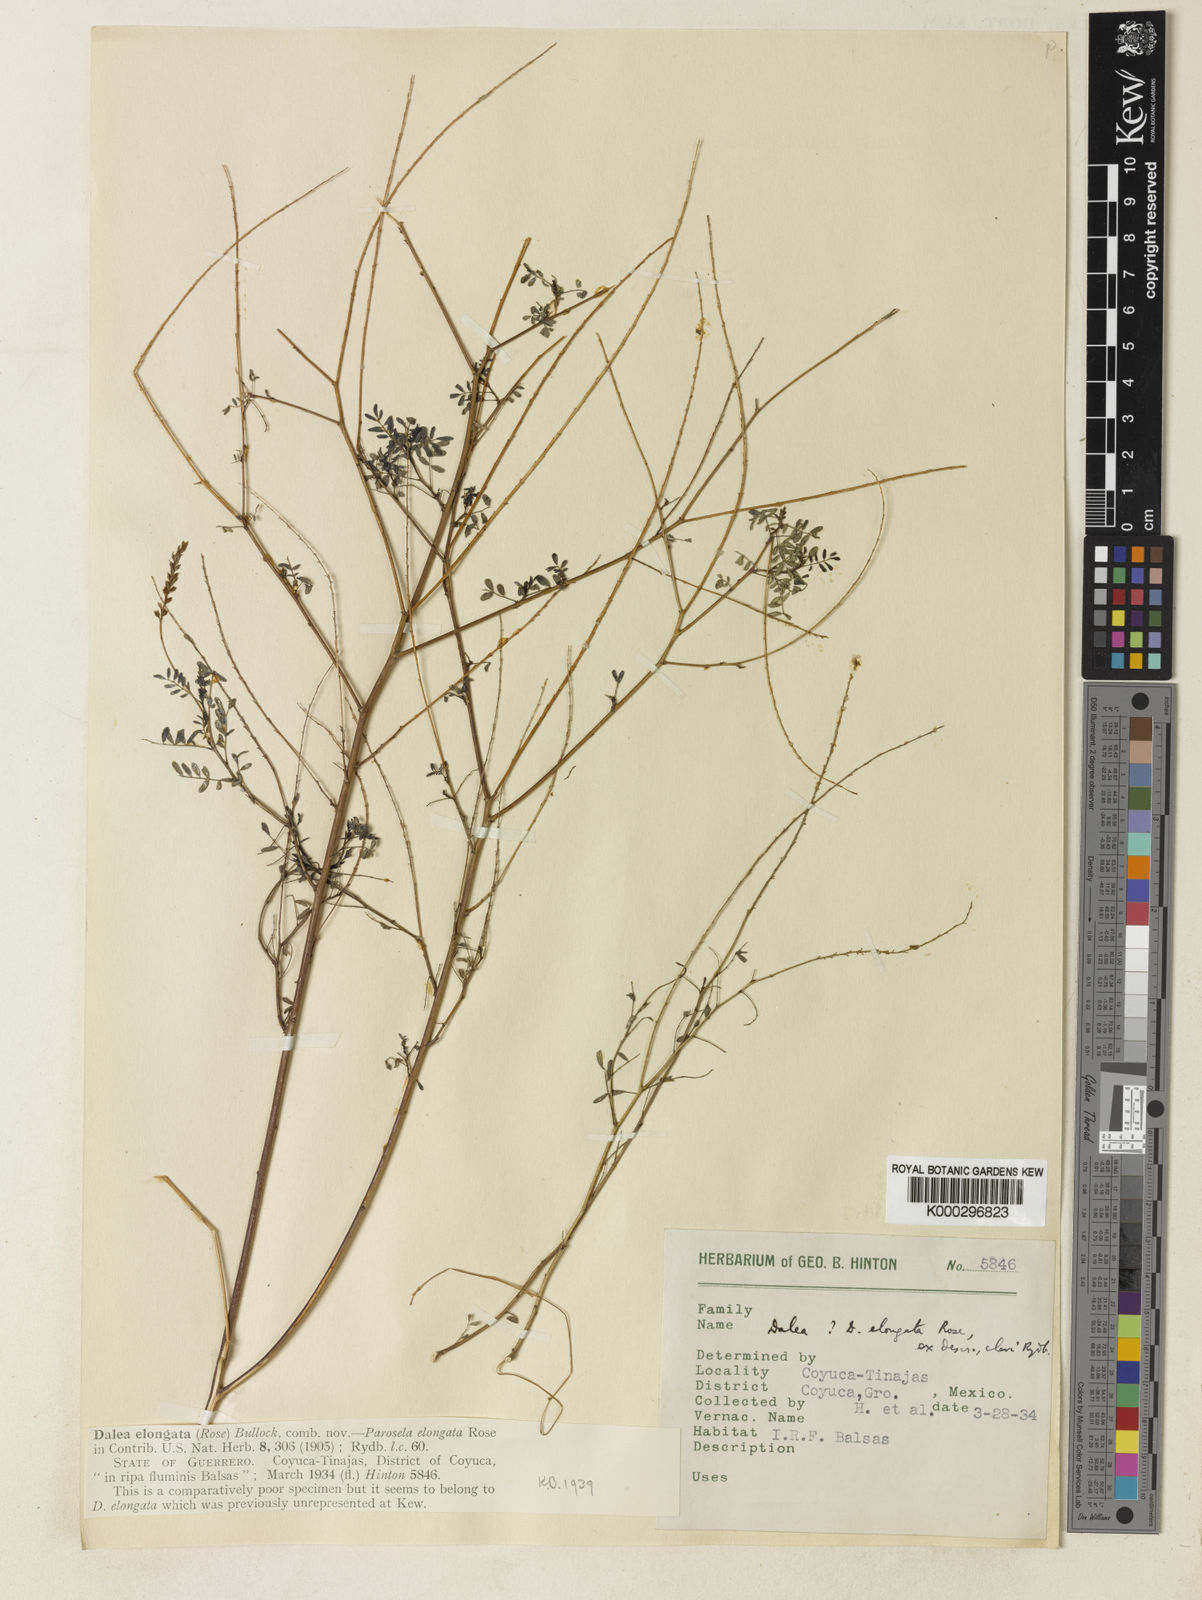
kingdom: Plantae
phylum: Tracheophyta
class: Magnoliopsida
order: Fabales
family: Fabaceae
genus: Marina
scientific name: Marina neglecta
